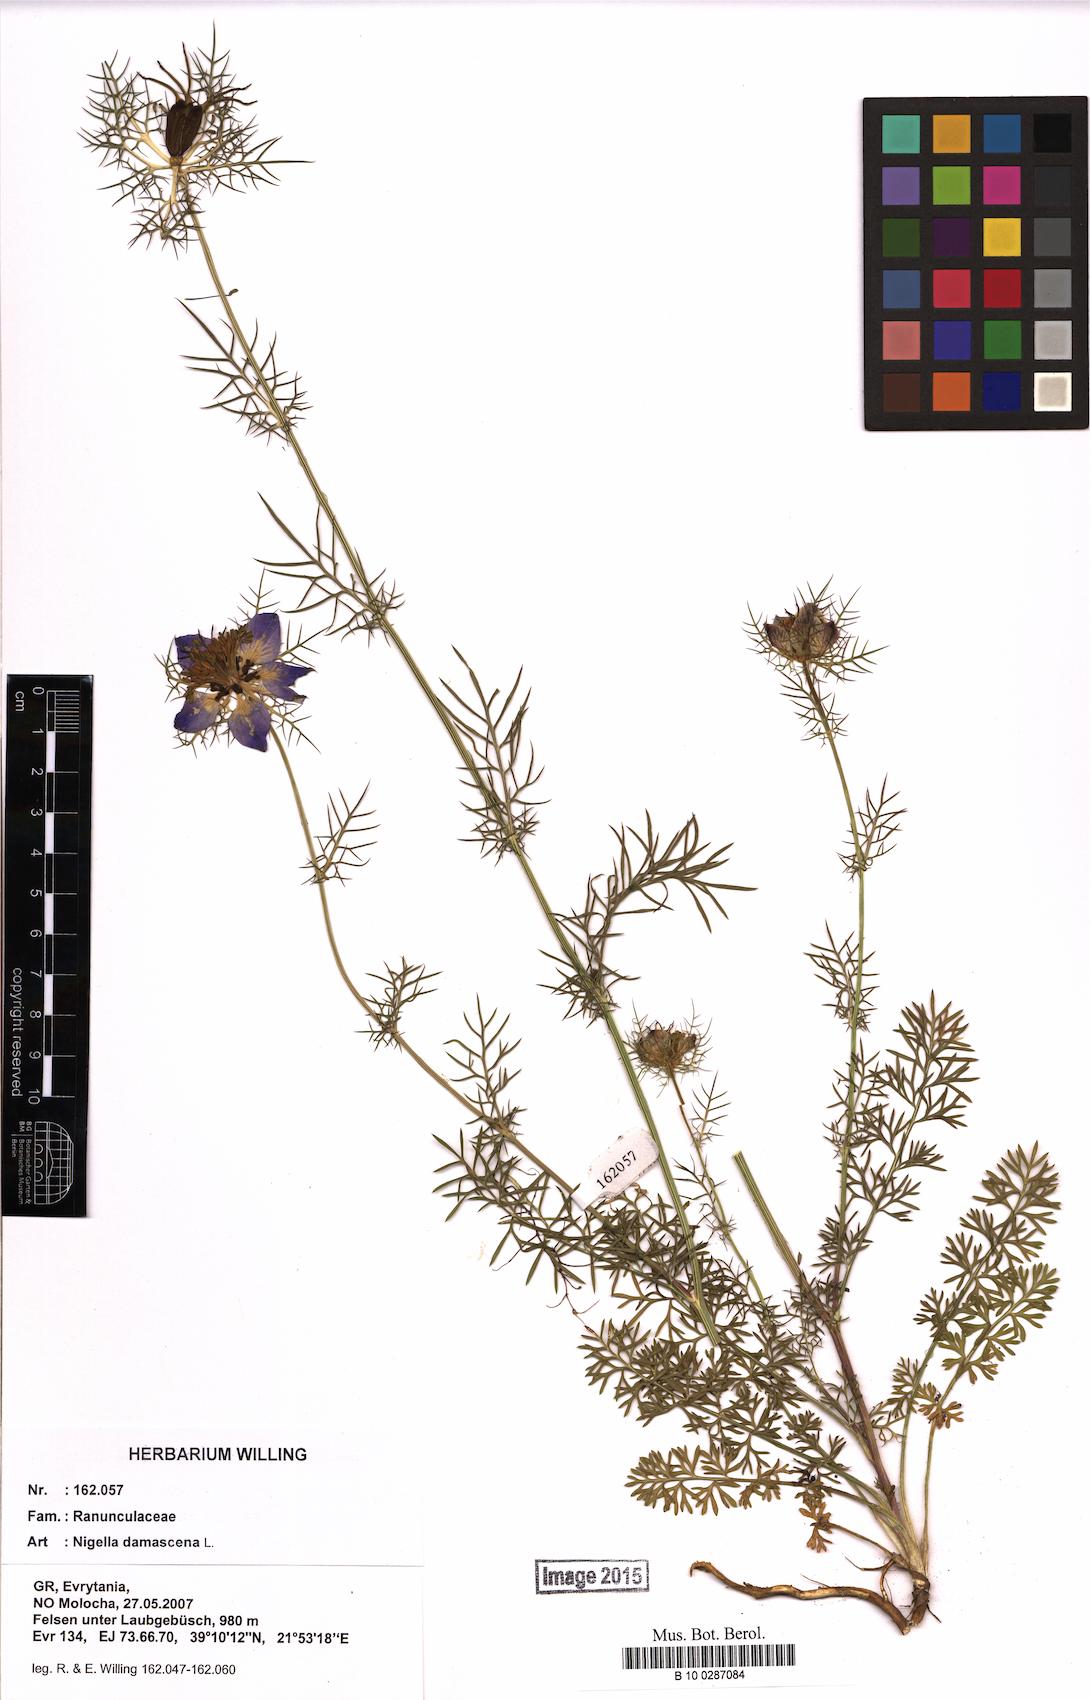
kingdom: Plantae
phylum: Tracheophyta
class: Magnoliopsida
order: Ranunculales
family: Ranunculaceae
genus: Nigella
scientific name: Nigella damascena
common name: Love-in-a-mist
